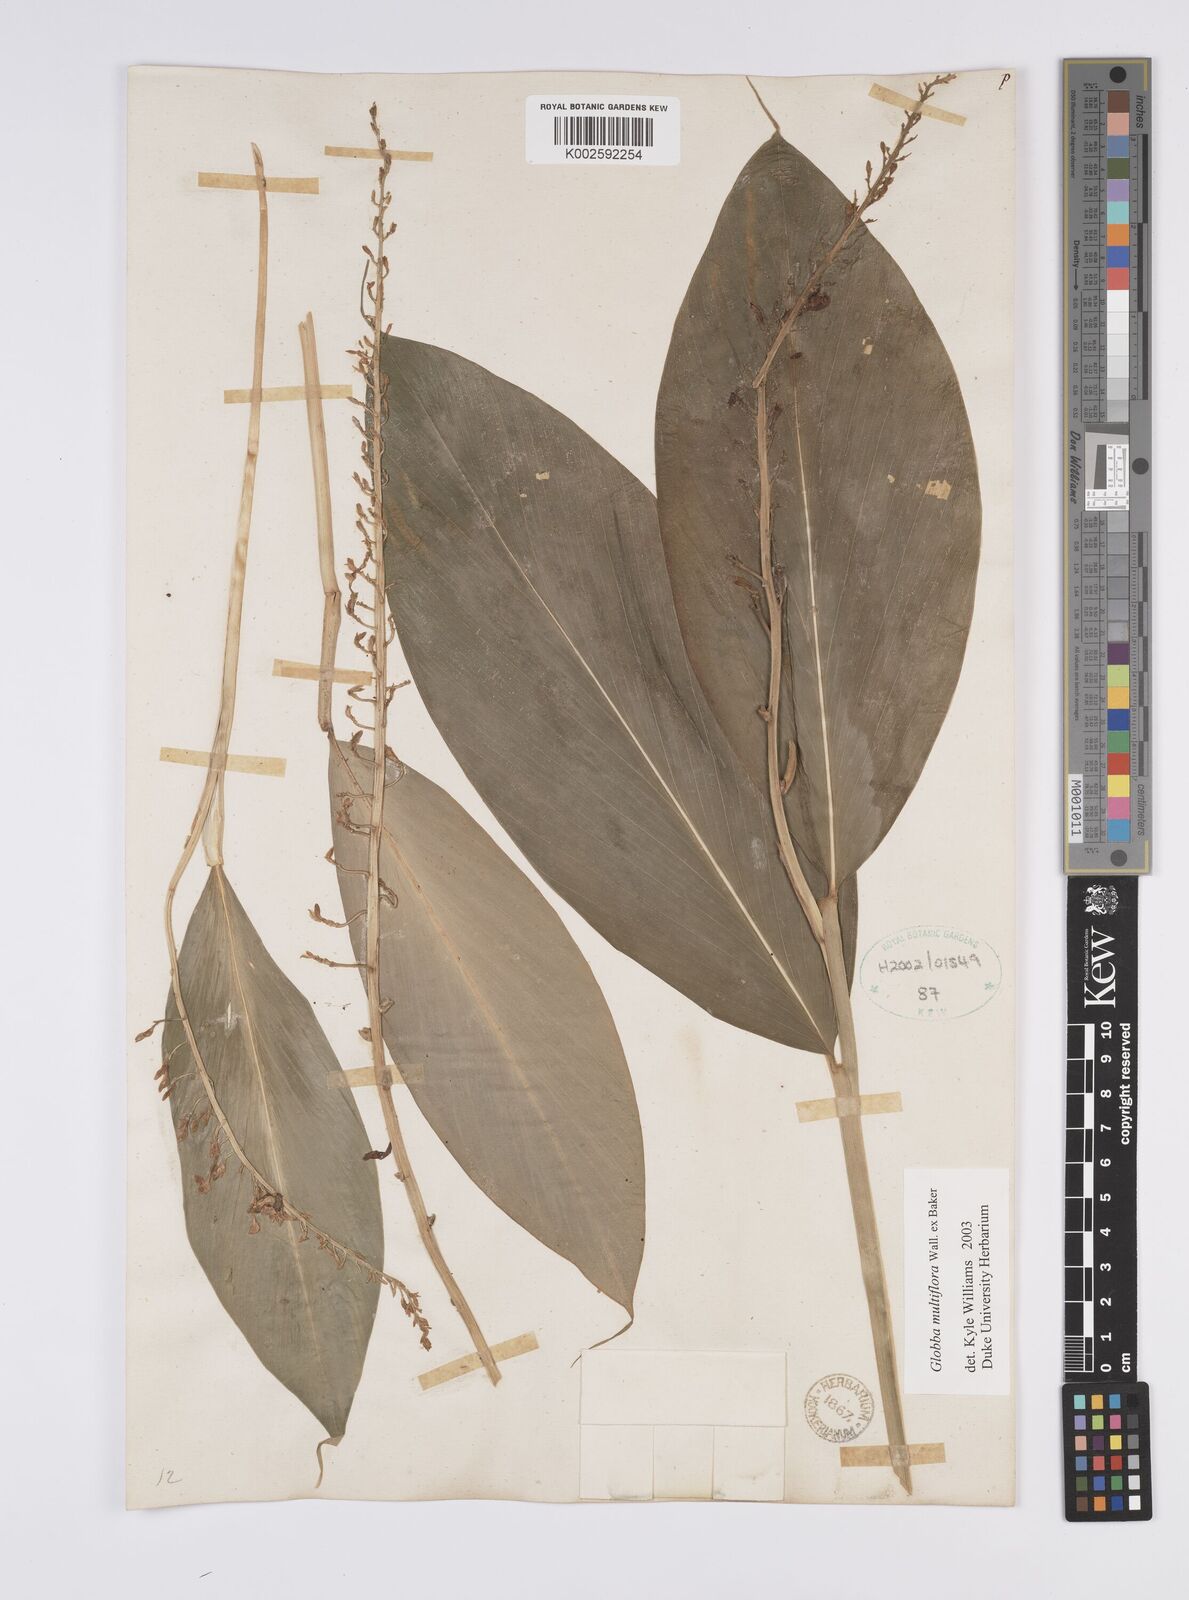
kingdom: Plantae
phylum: Tracheophyta
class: Liliopsida
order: Zingiberales
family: Zingiberaceae
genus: Globba
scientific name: Globba multiflora
